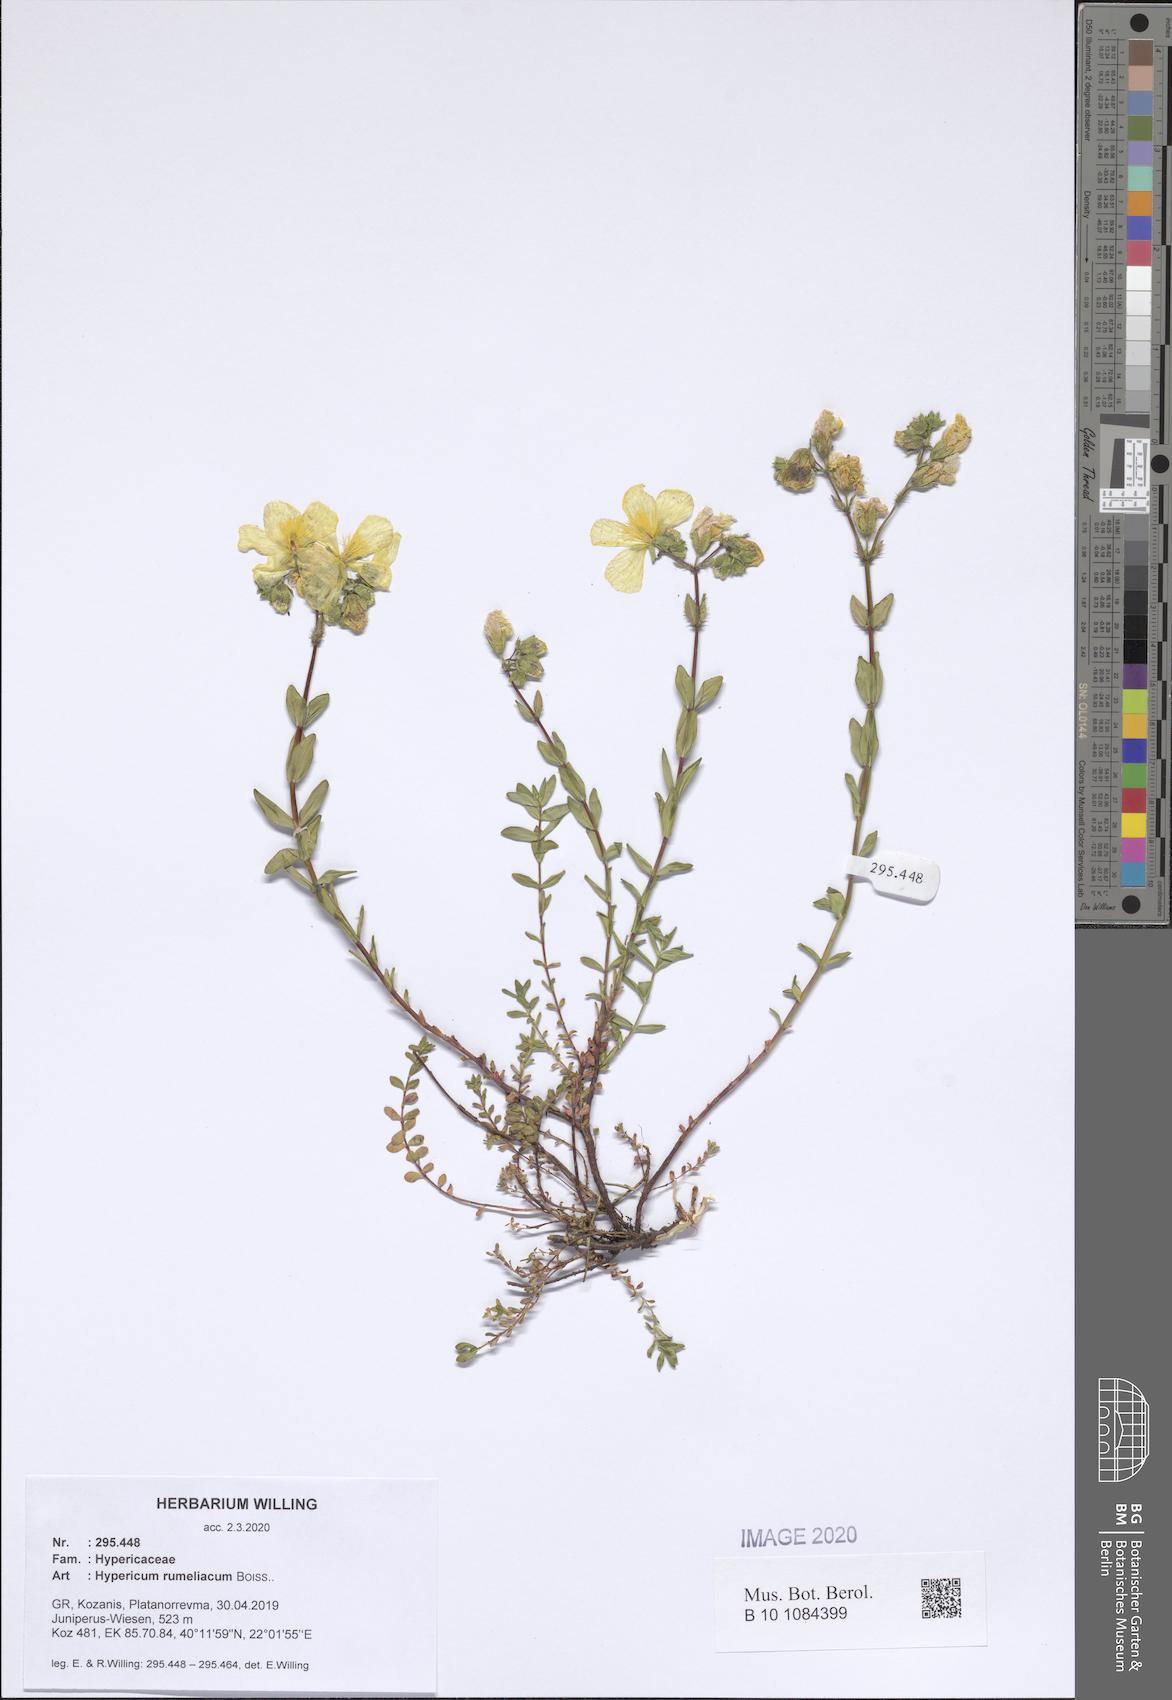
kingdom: Plantae
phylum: Tracheophyta
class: Magnoliopsida
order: Malpighiales
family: Hypericaceae
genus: Hypericum
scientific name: Hypericum rumeliacum
